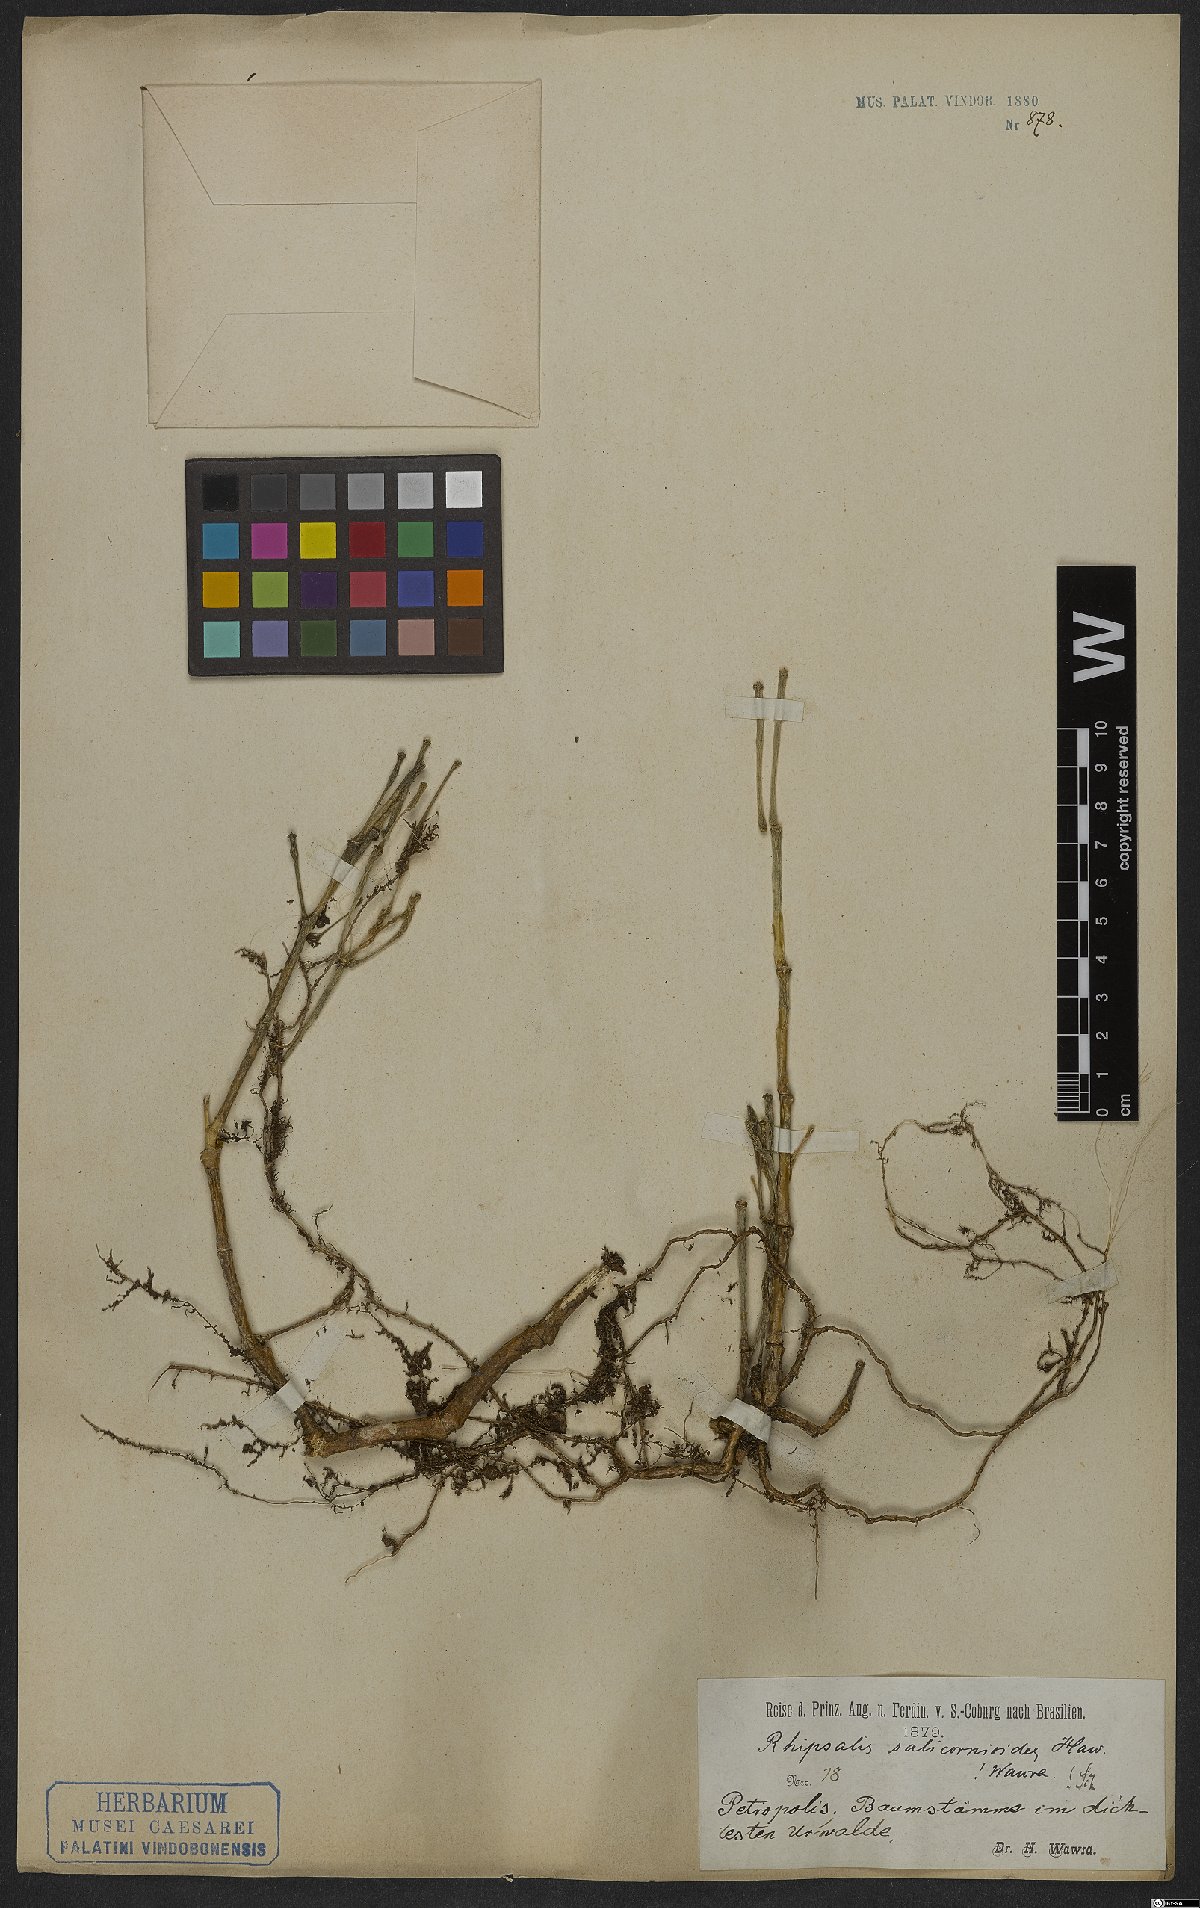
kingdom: Plantae
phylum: Tracheophyta
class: Magnoliopsida
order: Caryophyllales
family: Cactaceae
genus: Hatiora
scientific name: Hatiora salicornioides
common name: Dancing-bones
